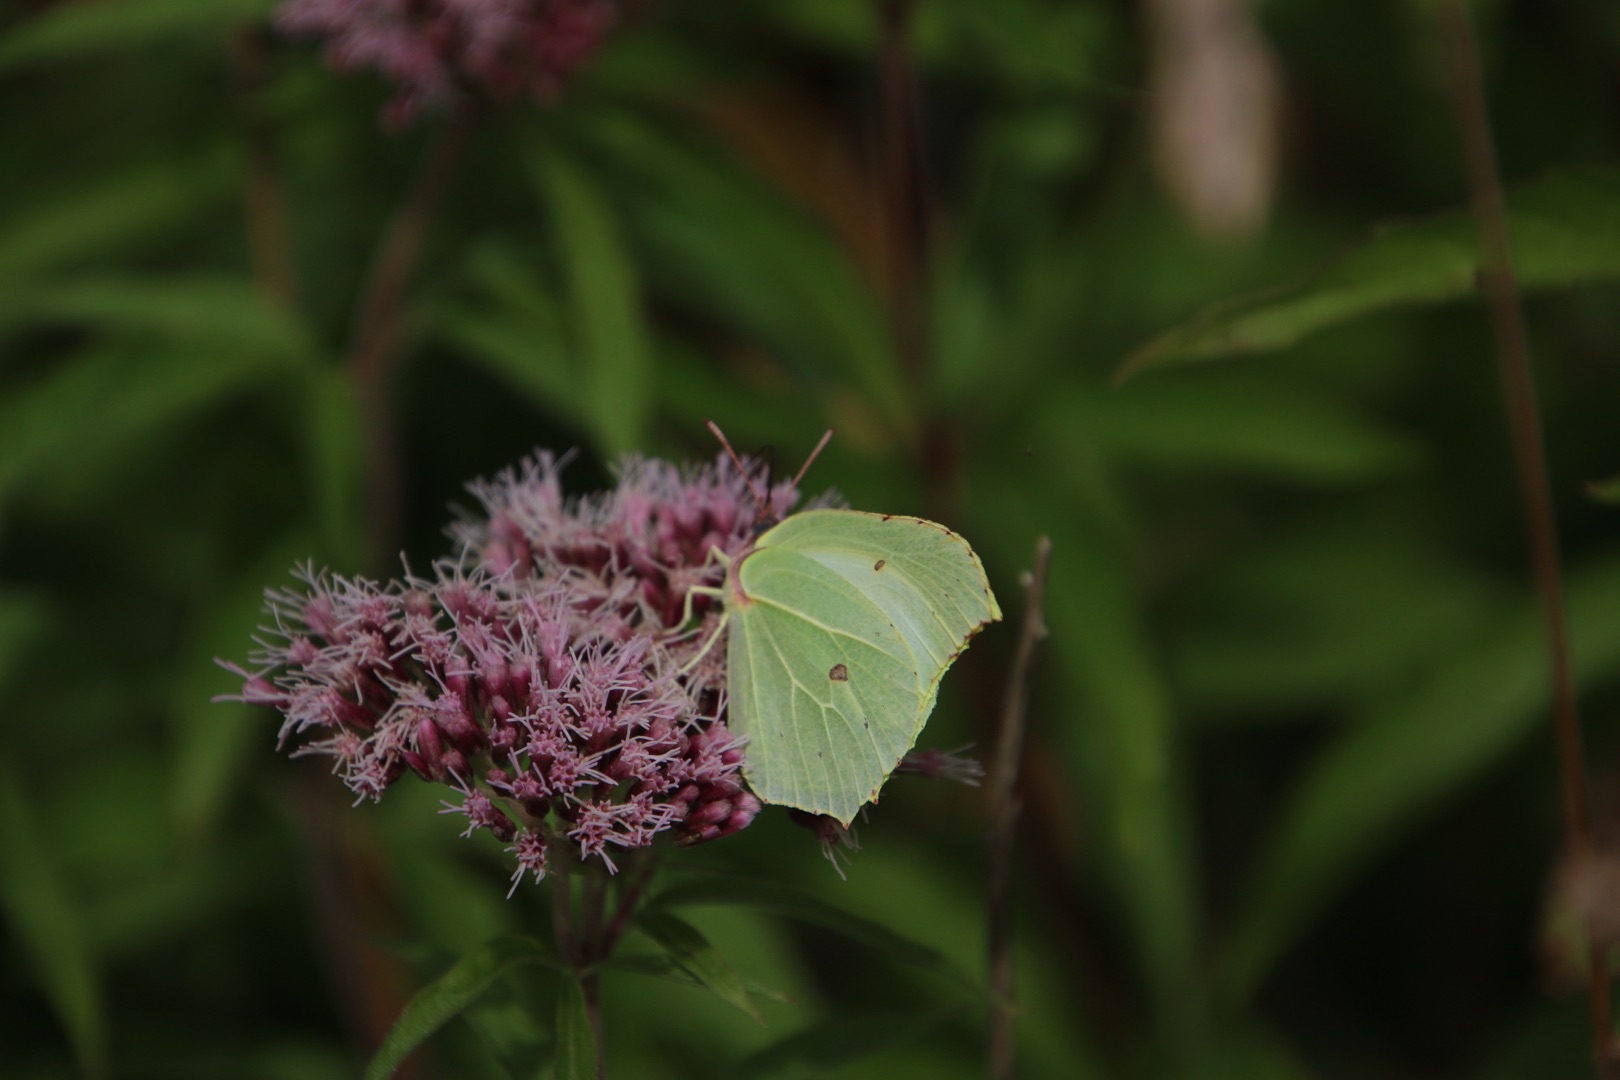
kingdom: Animalia
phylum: Arthropoda
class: Insecta
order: Lepidoptera
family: Pieridae
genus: Gonepteryx
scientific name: Gonepteryx rhamni
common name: Citronsommerfugl
